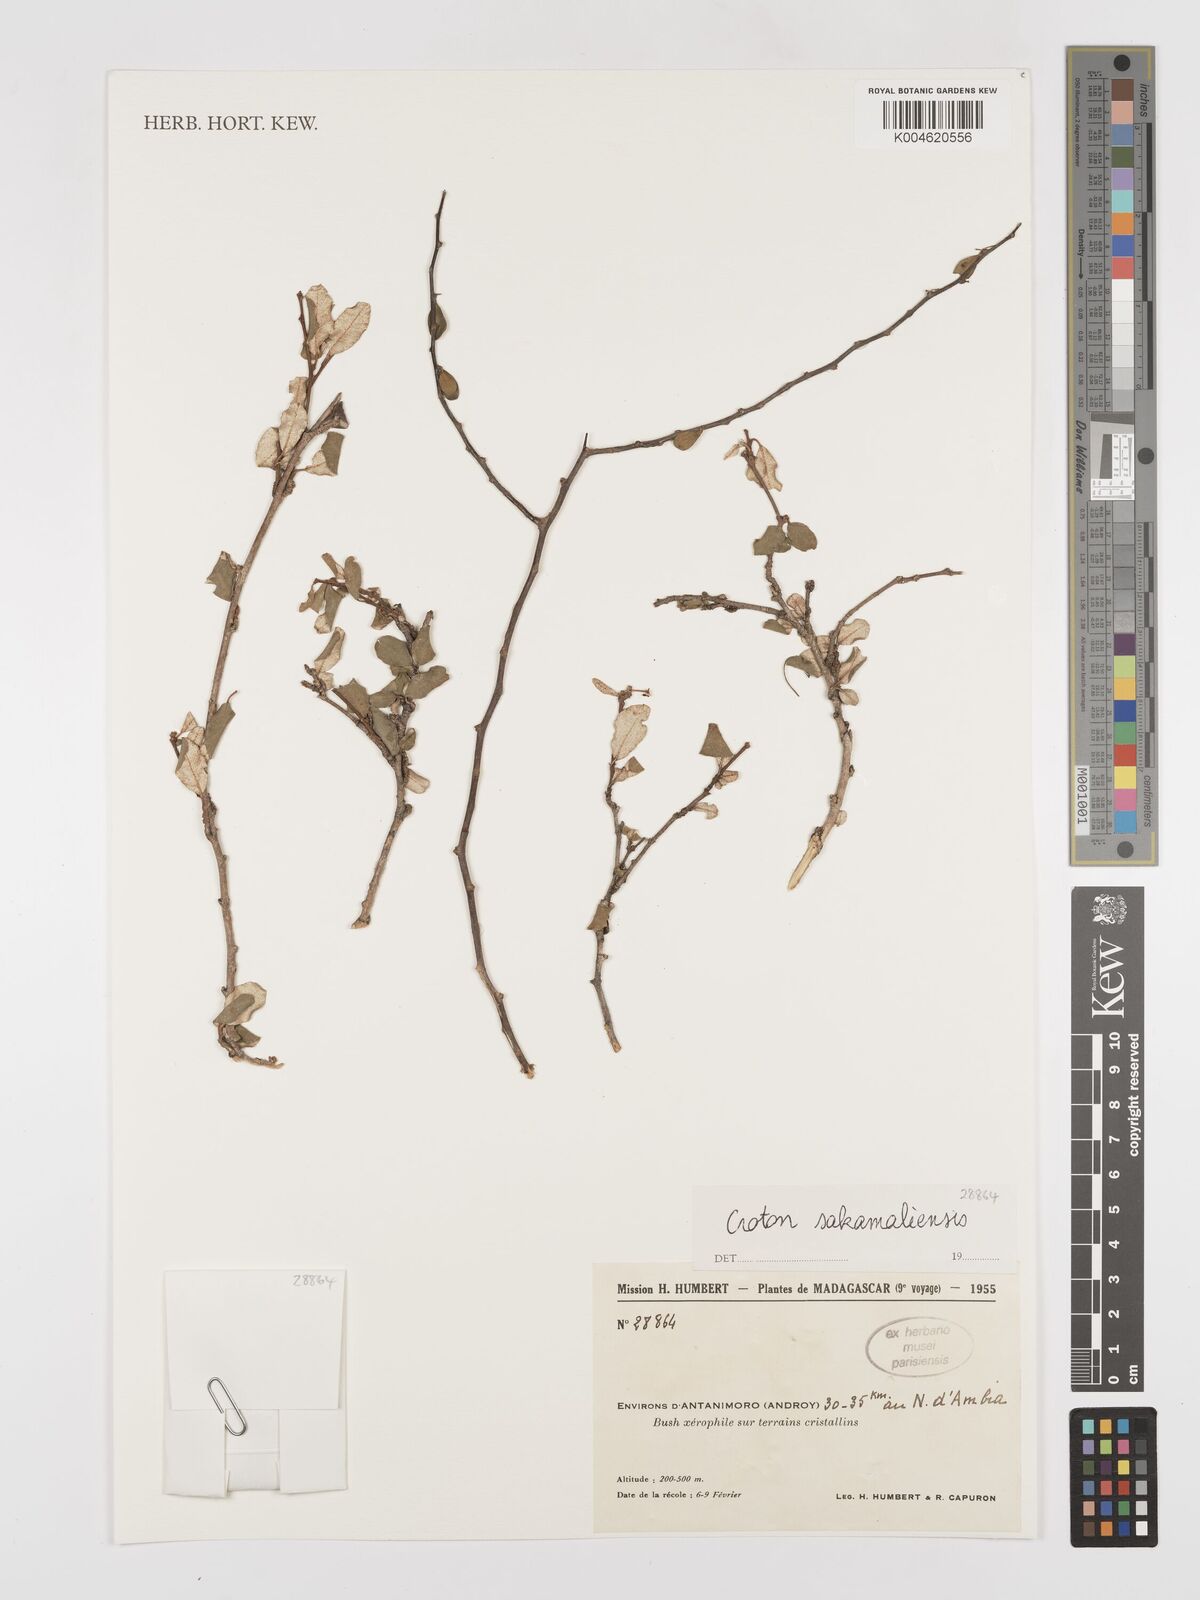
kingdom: Plantae
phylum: Tracheophyta
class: Magnoliopsida
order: Malpighiales
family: Euphorbiaceae
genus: Croton
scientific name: Croton sakamaliensis
